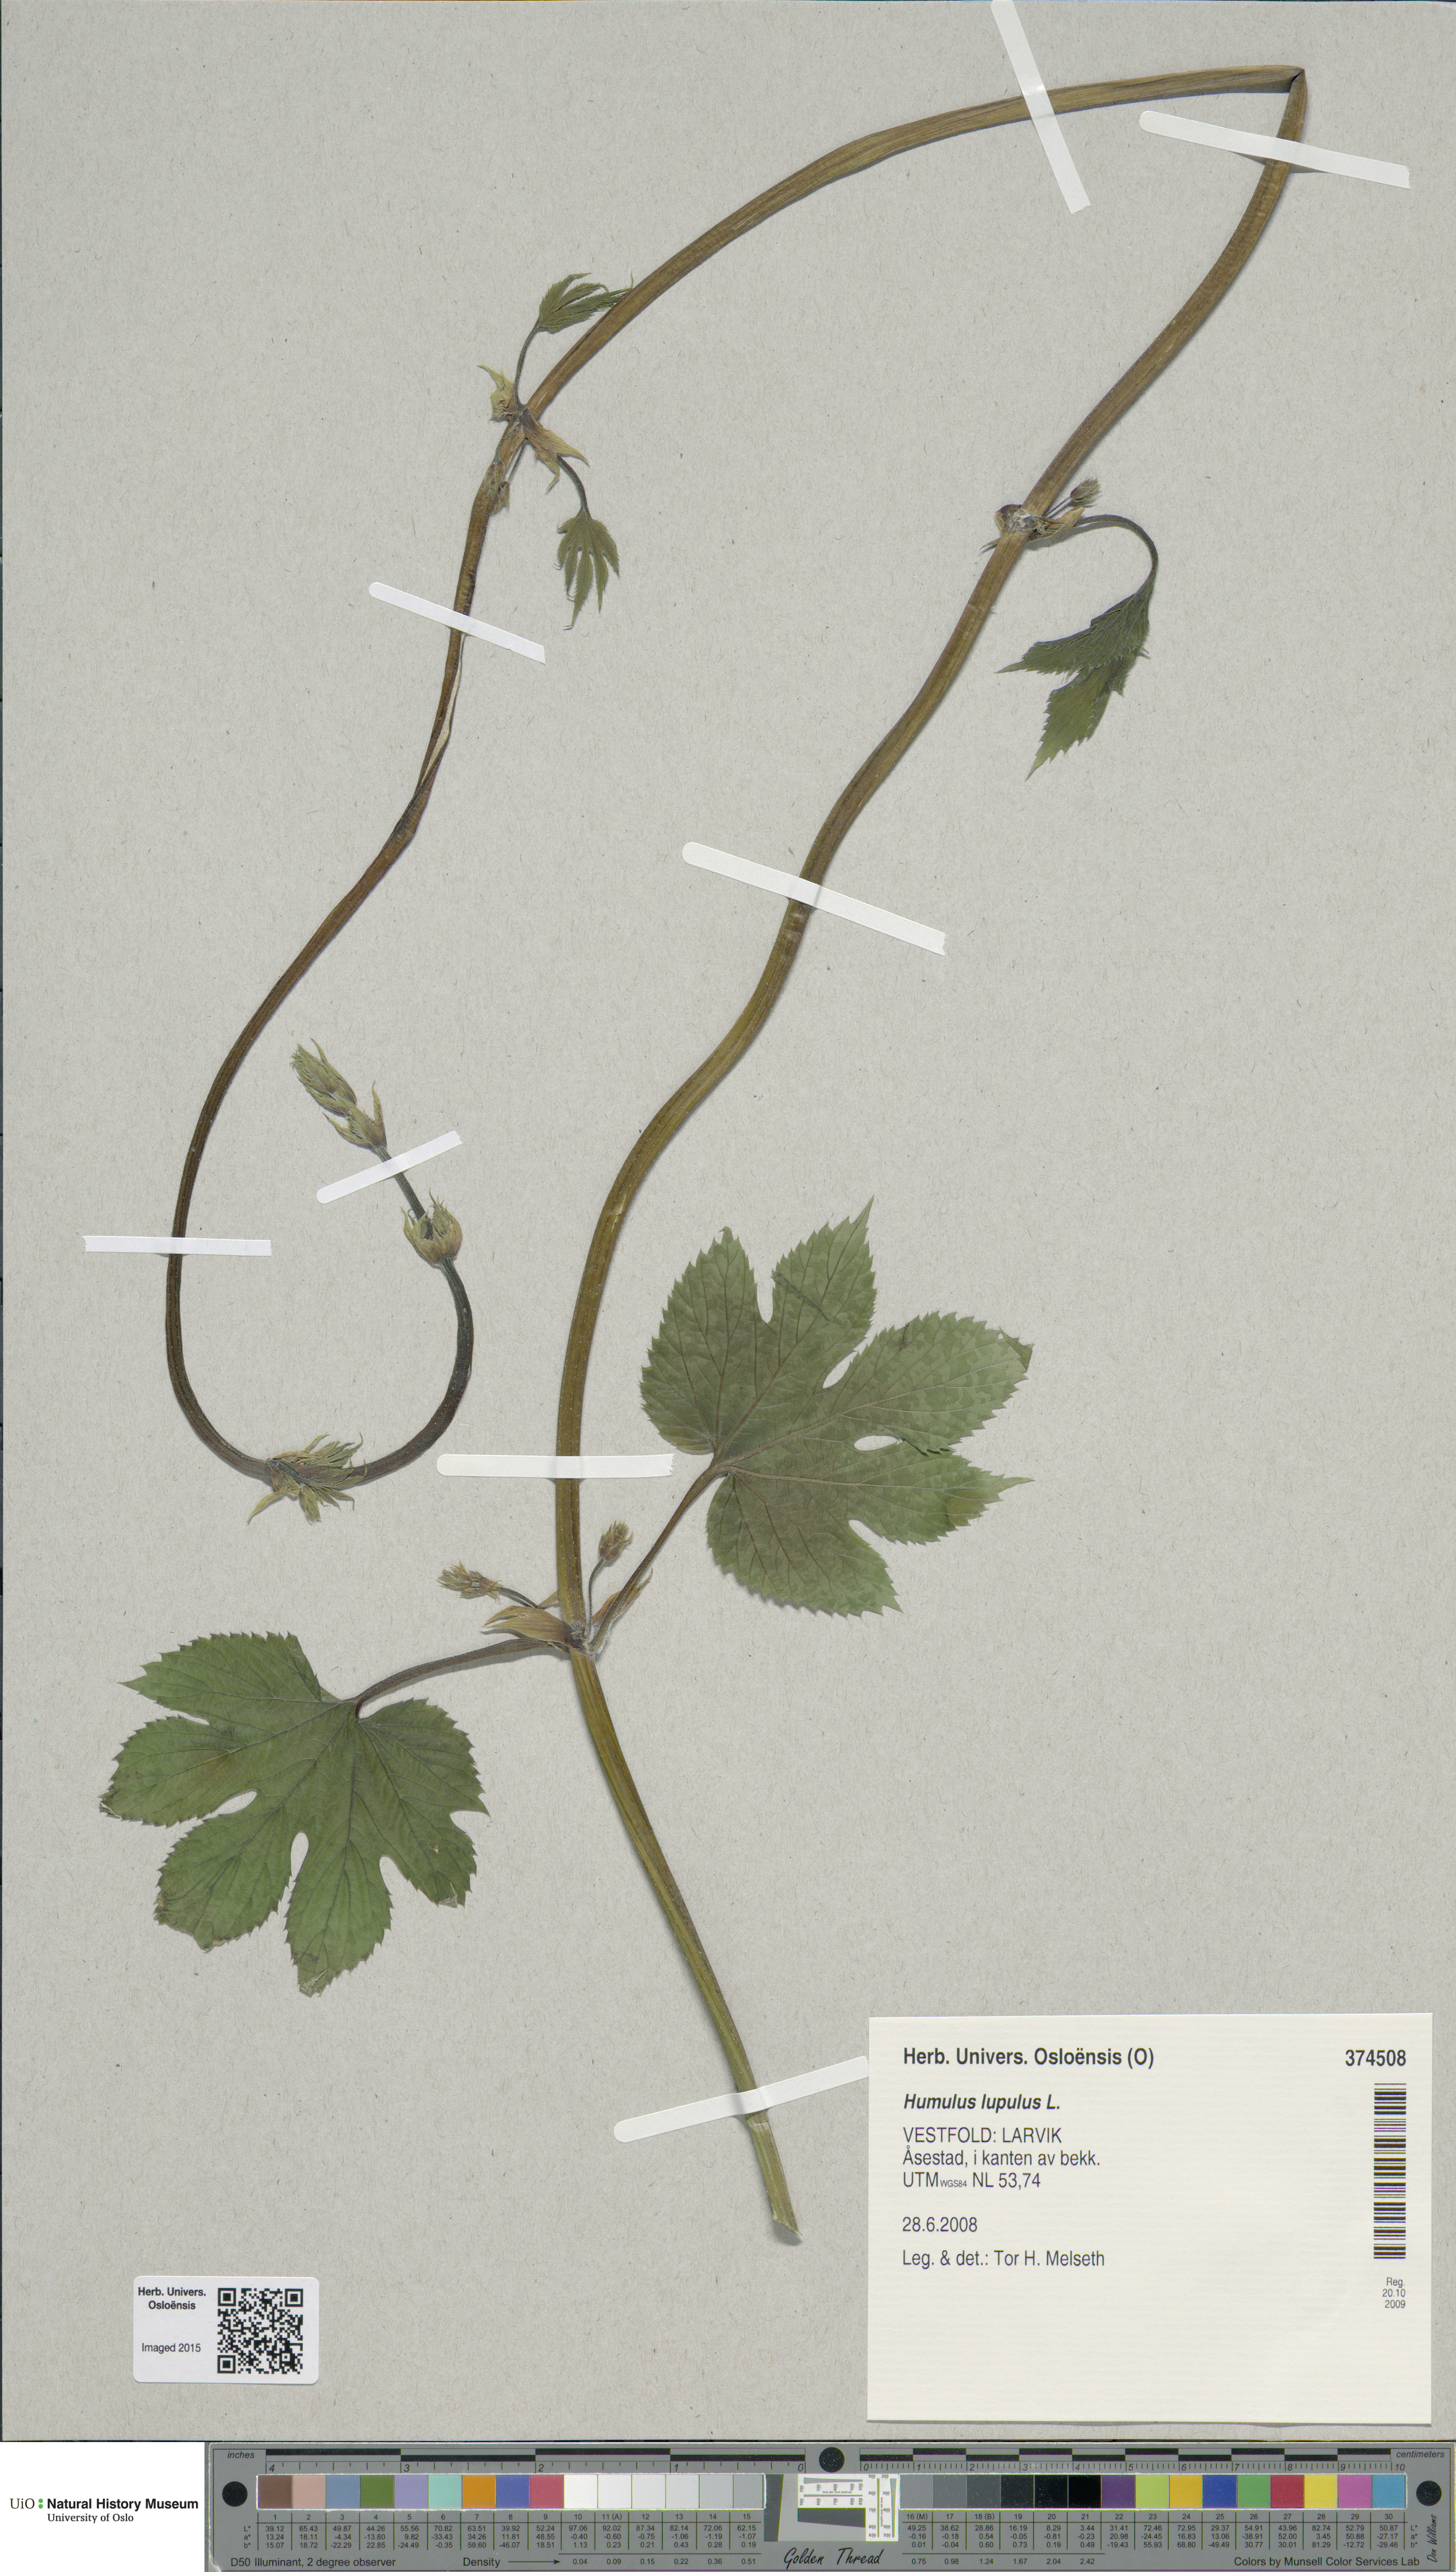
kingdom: Plantae
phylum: Tracheophyta
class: Magnoliopsida
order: Rosales
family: Cannabaceae
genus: Humulus
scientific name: Humulus lupulus
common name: Hop
